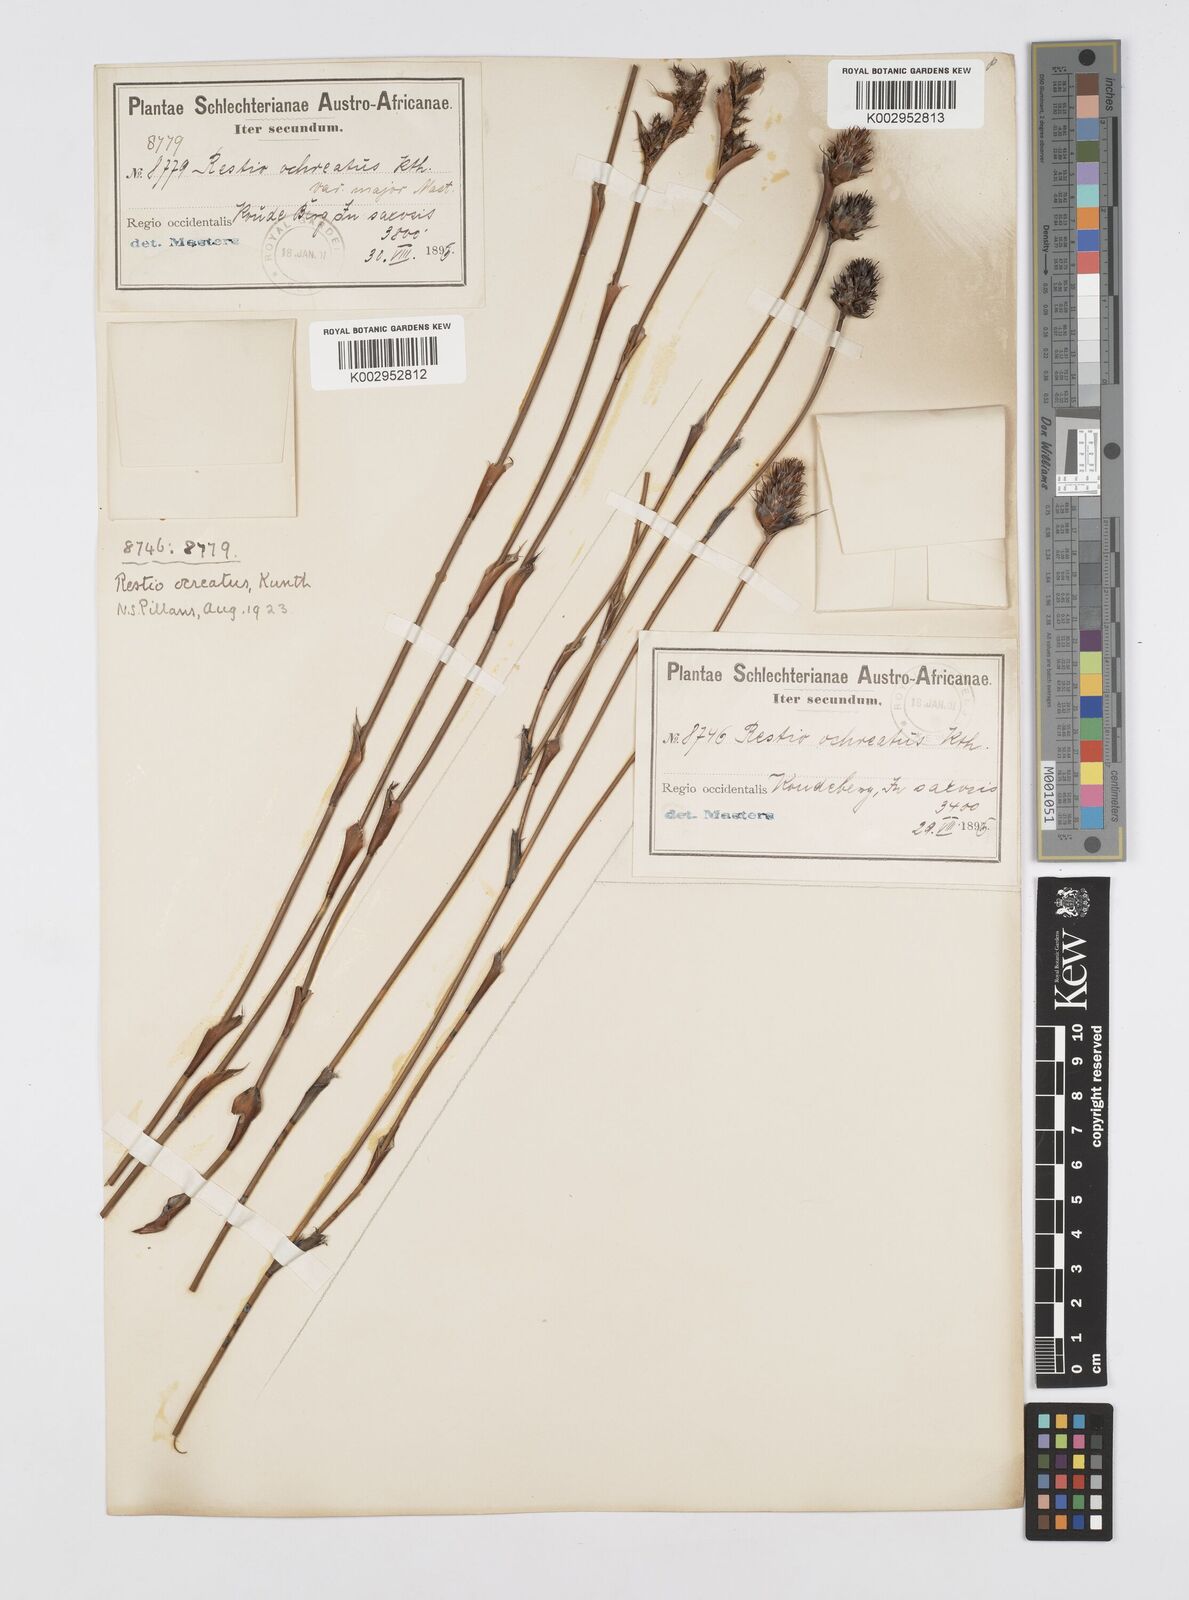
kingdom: Plantae
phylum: Tracheophyta
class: Liliopsida
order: Poales
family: Restionaceae
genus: Restio
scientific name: Restio ocreatus
